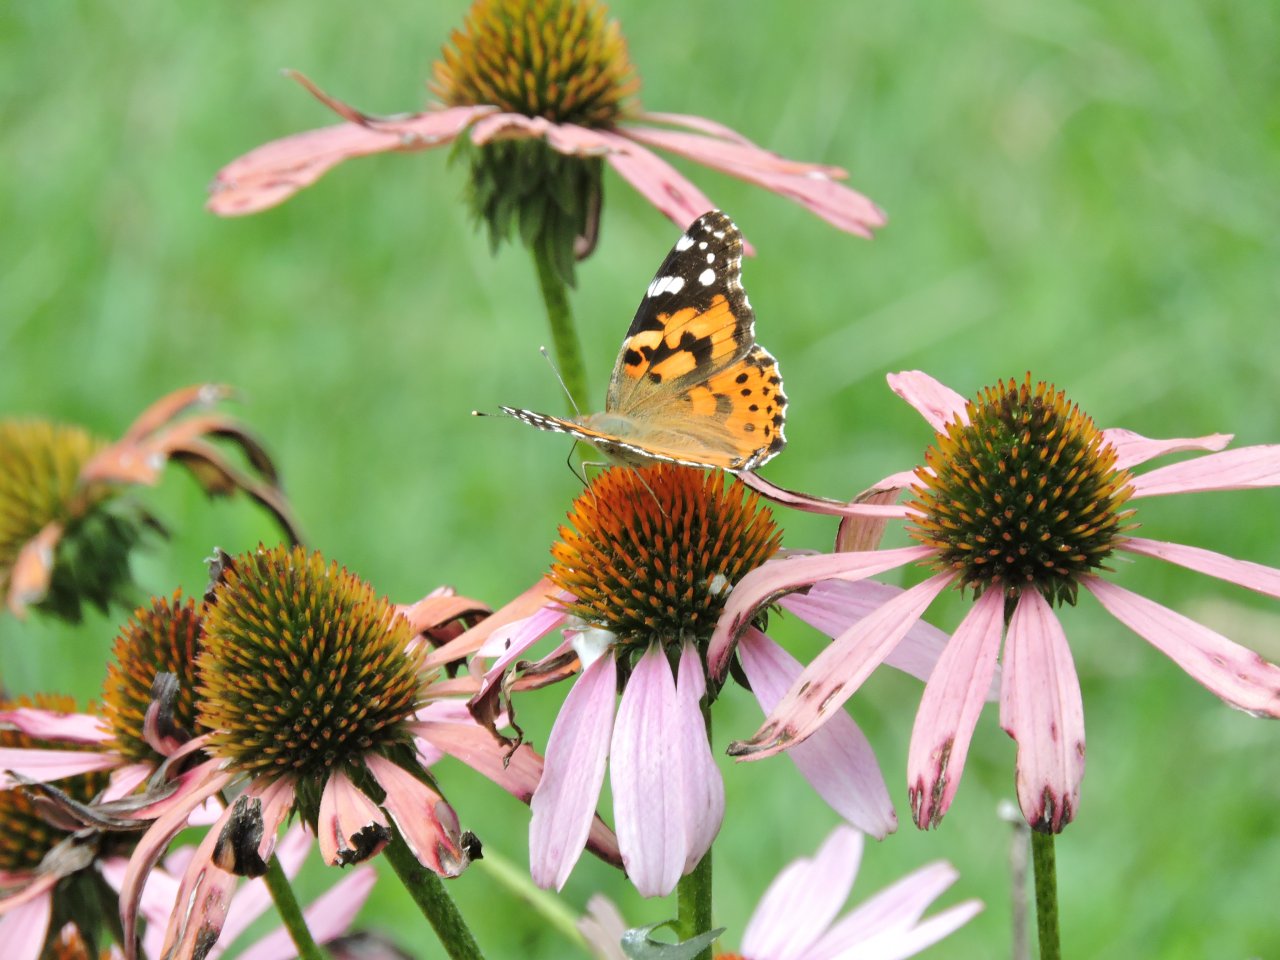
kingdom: Animalia
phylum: Arthropoda
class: Insecta
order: Lepidoptera
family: Nymphalidae
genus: Vanessa
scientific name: Vanessa cardui
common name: Painted Lady
